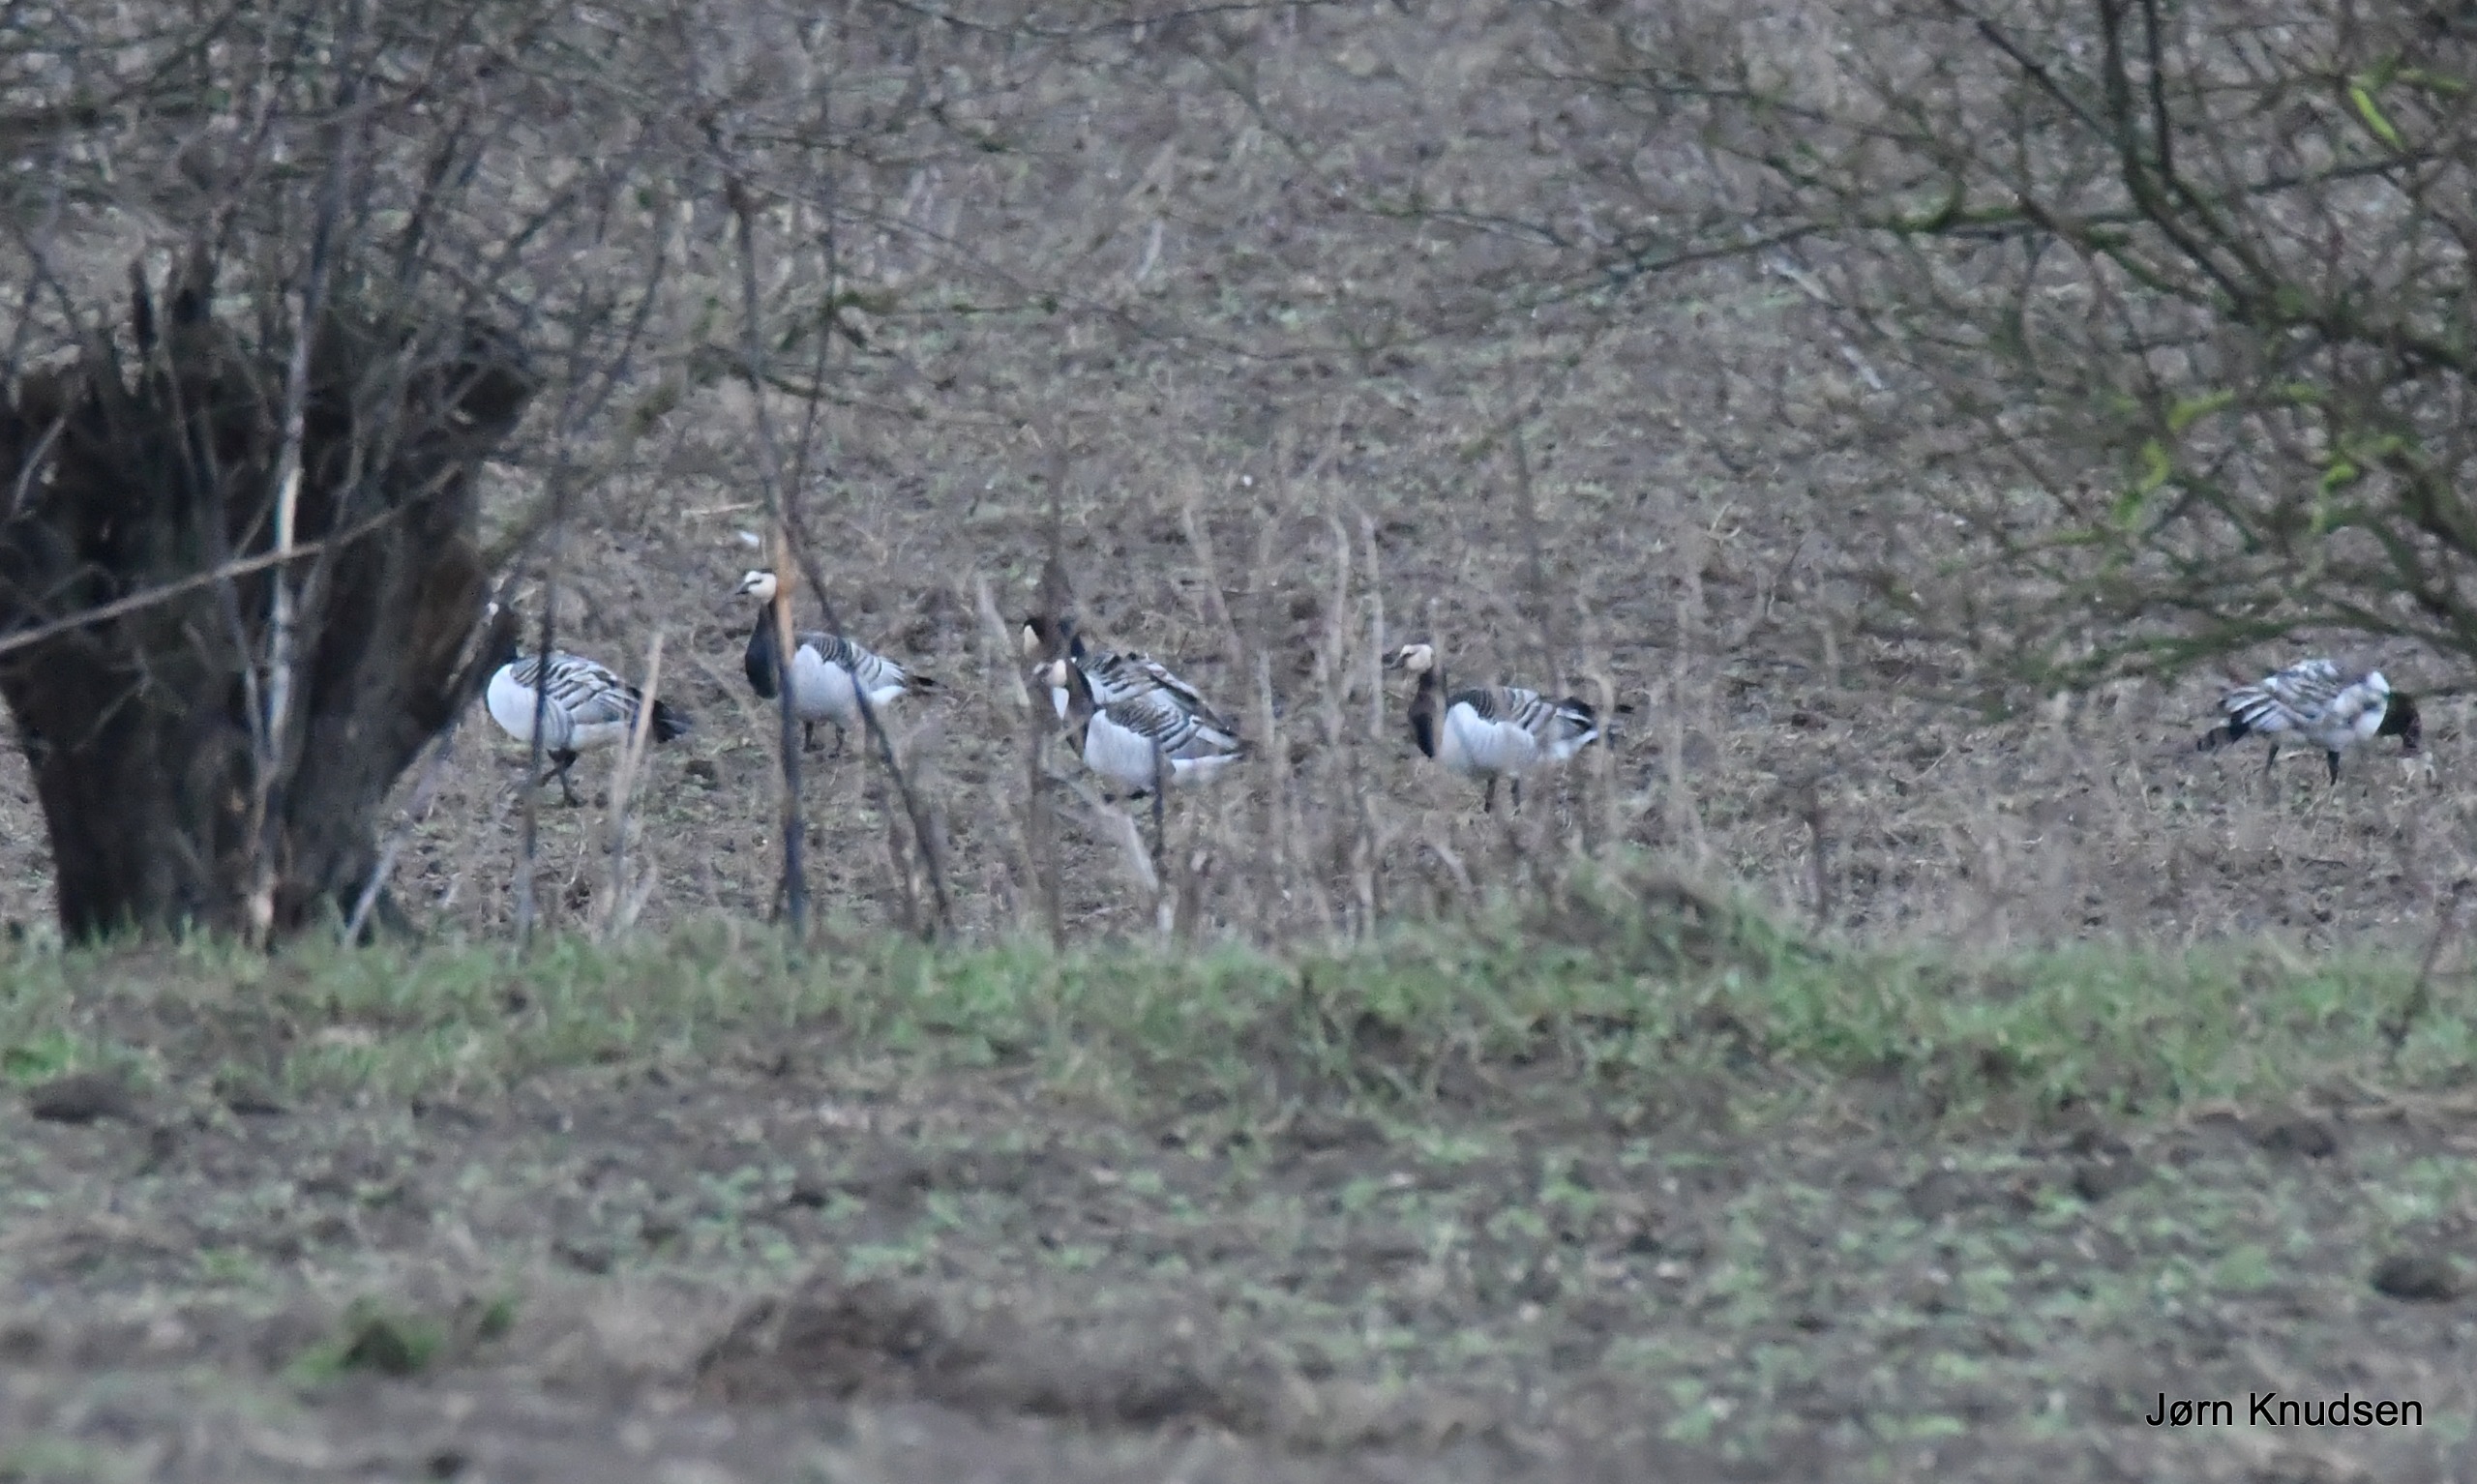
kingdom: Animalia
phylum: Chordata
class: Aves
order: Anseriformes
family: Anatidae
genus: Branta
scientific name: Branta leucopsis
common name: Bramgås
